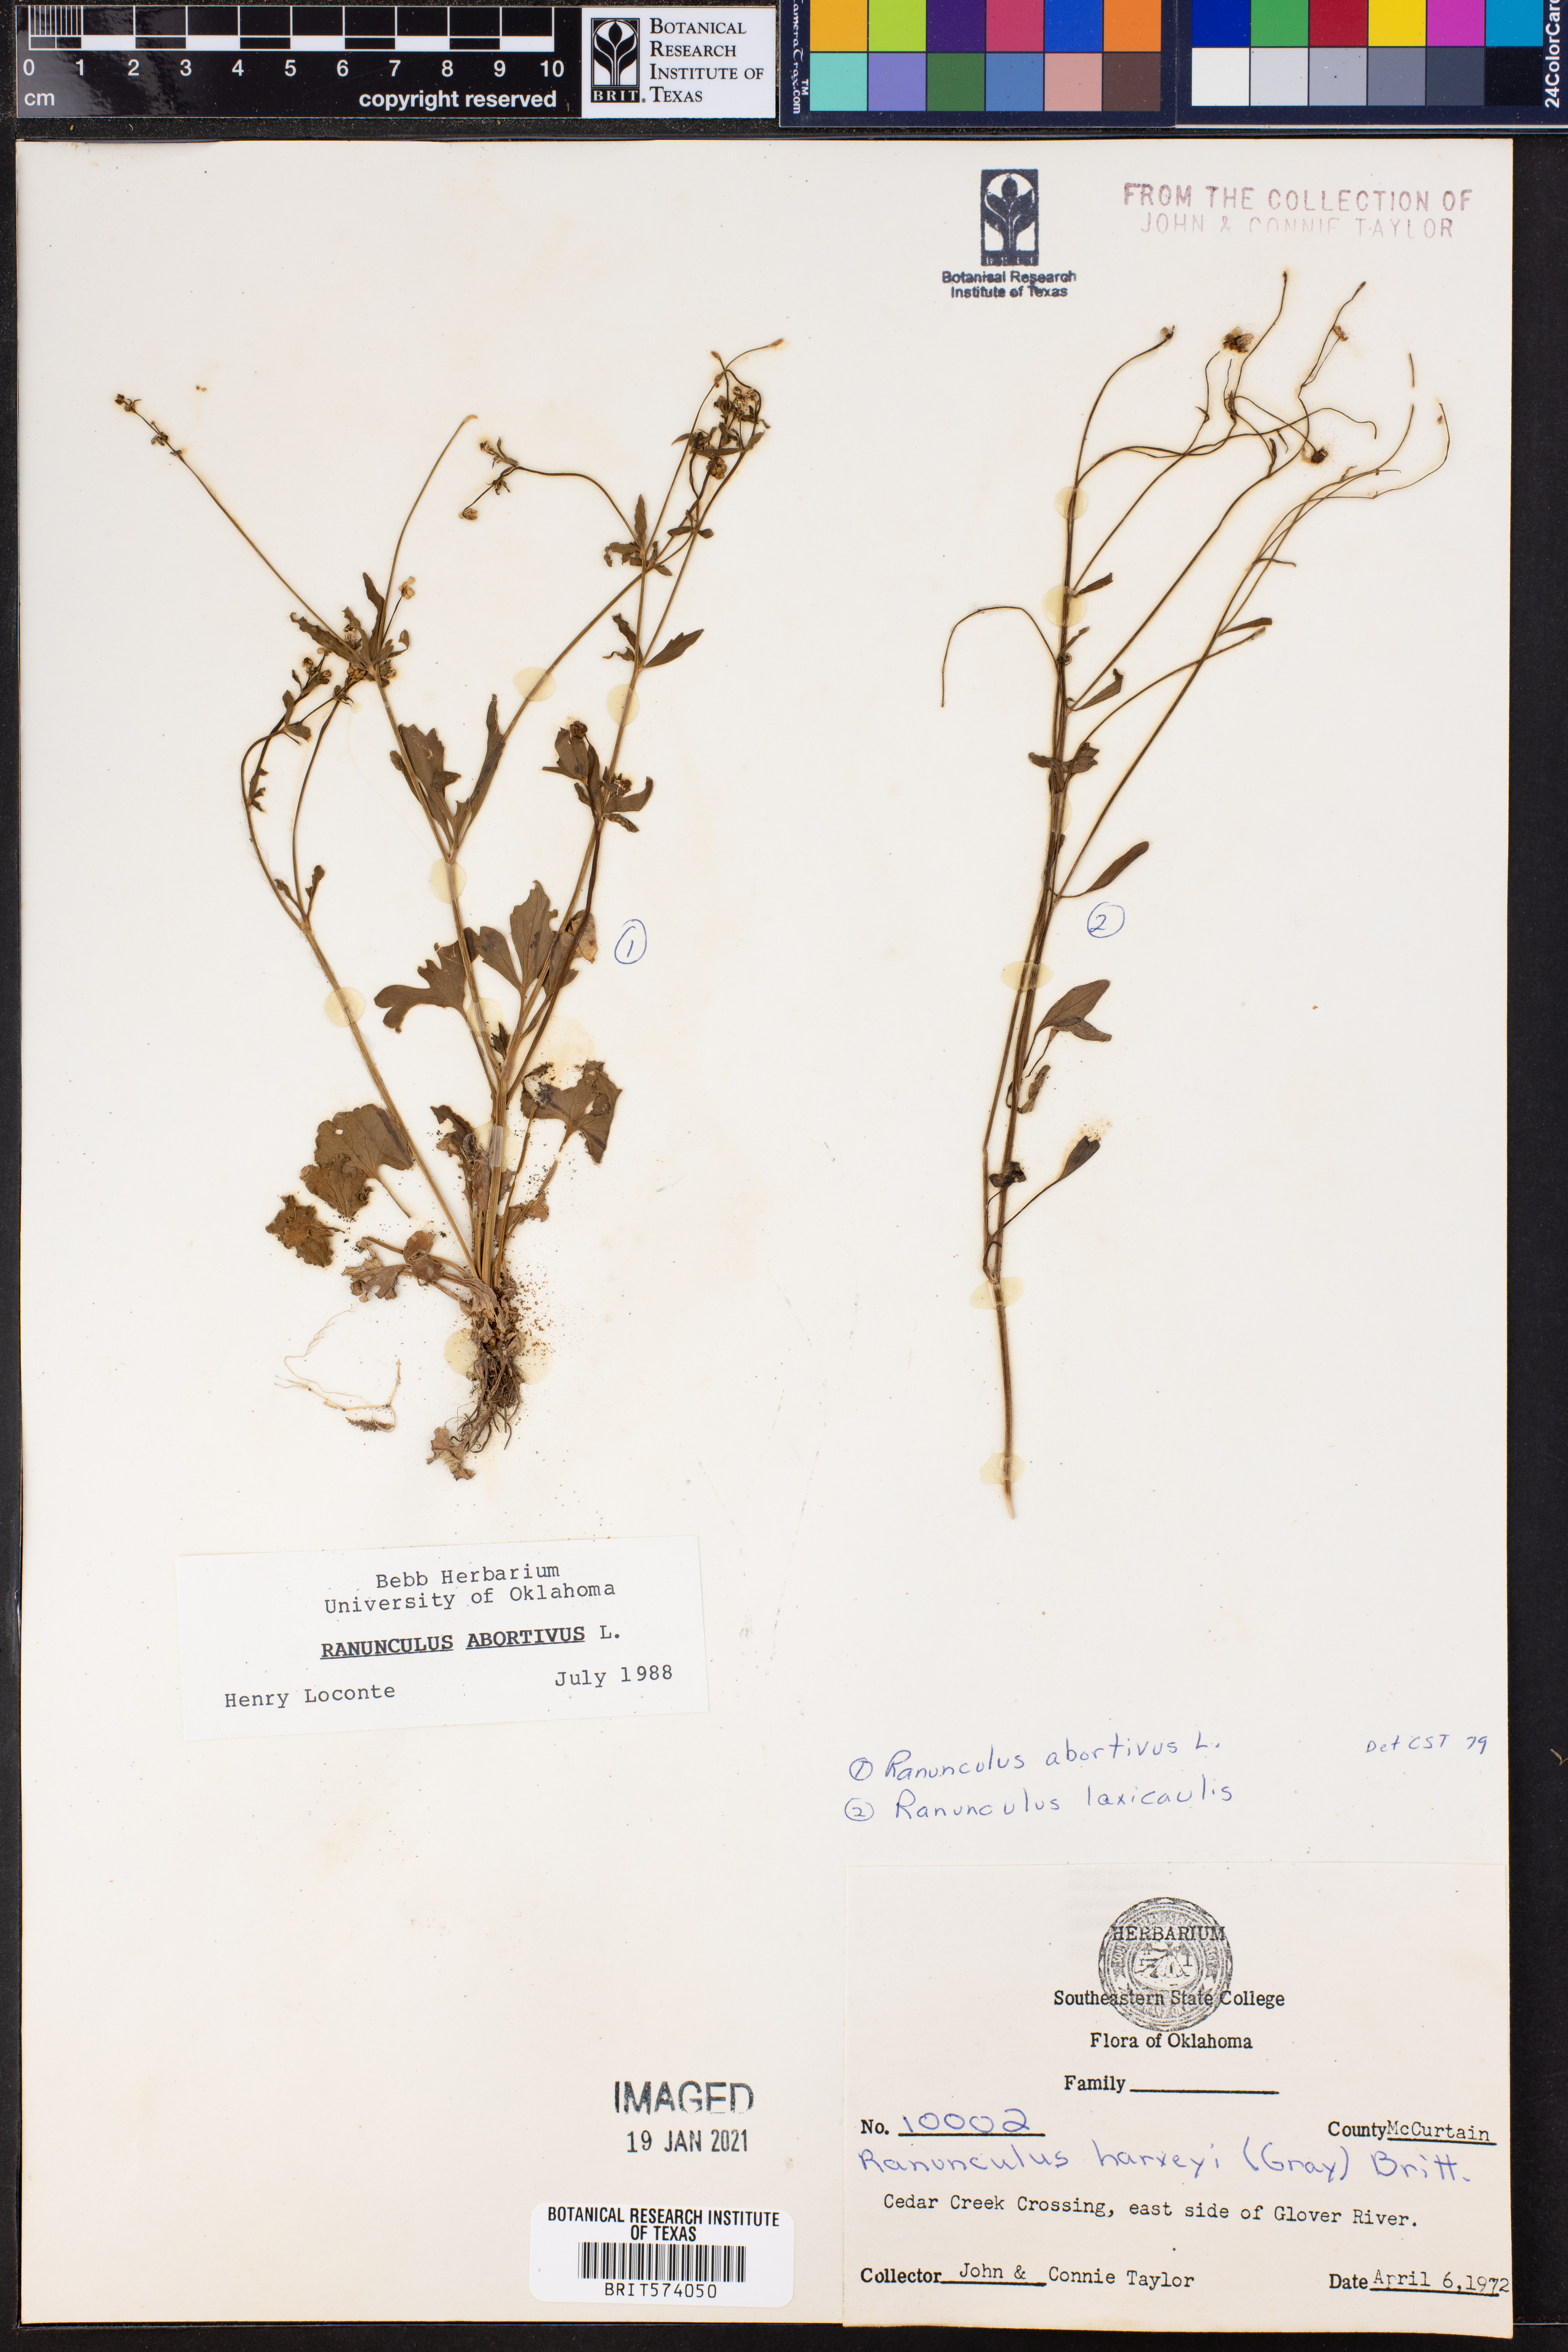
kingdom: Plantae
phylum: Tracheophyta
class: Magnoliopsida
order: Ranunculales
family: Ranunculaceae
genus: Ranunculus
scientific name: Ranunculus abortivus
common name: Early wood buttercup
